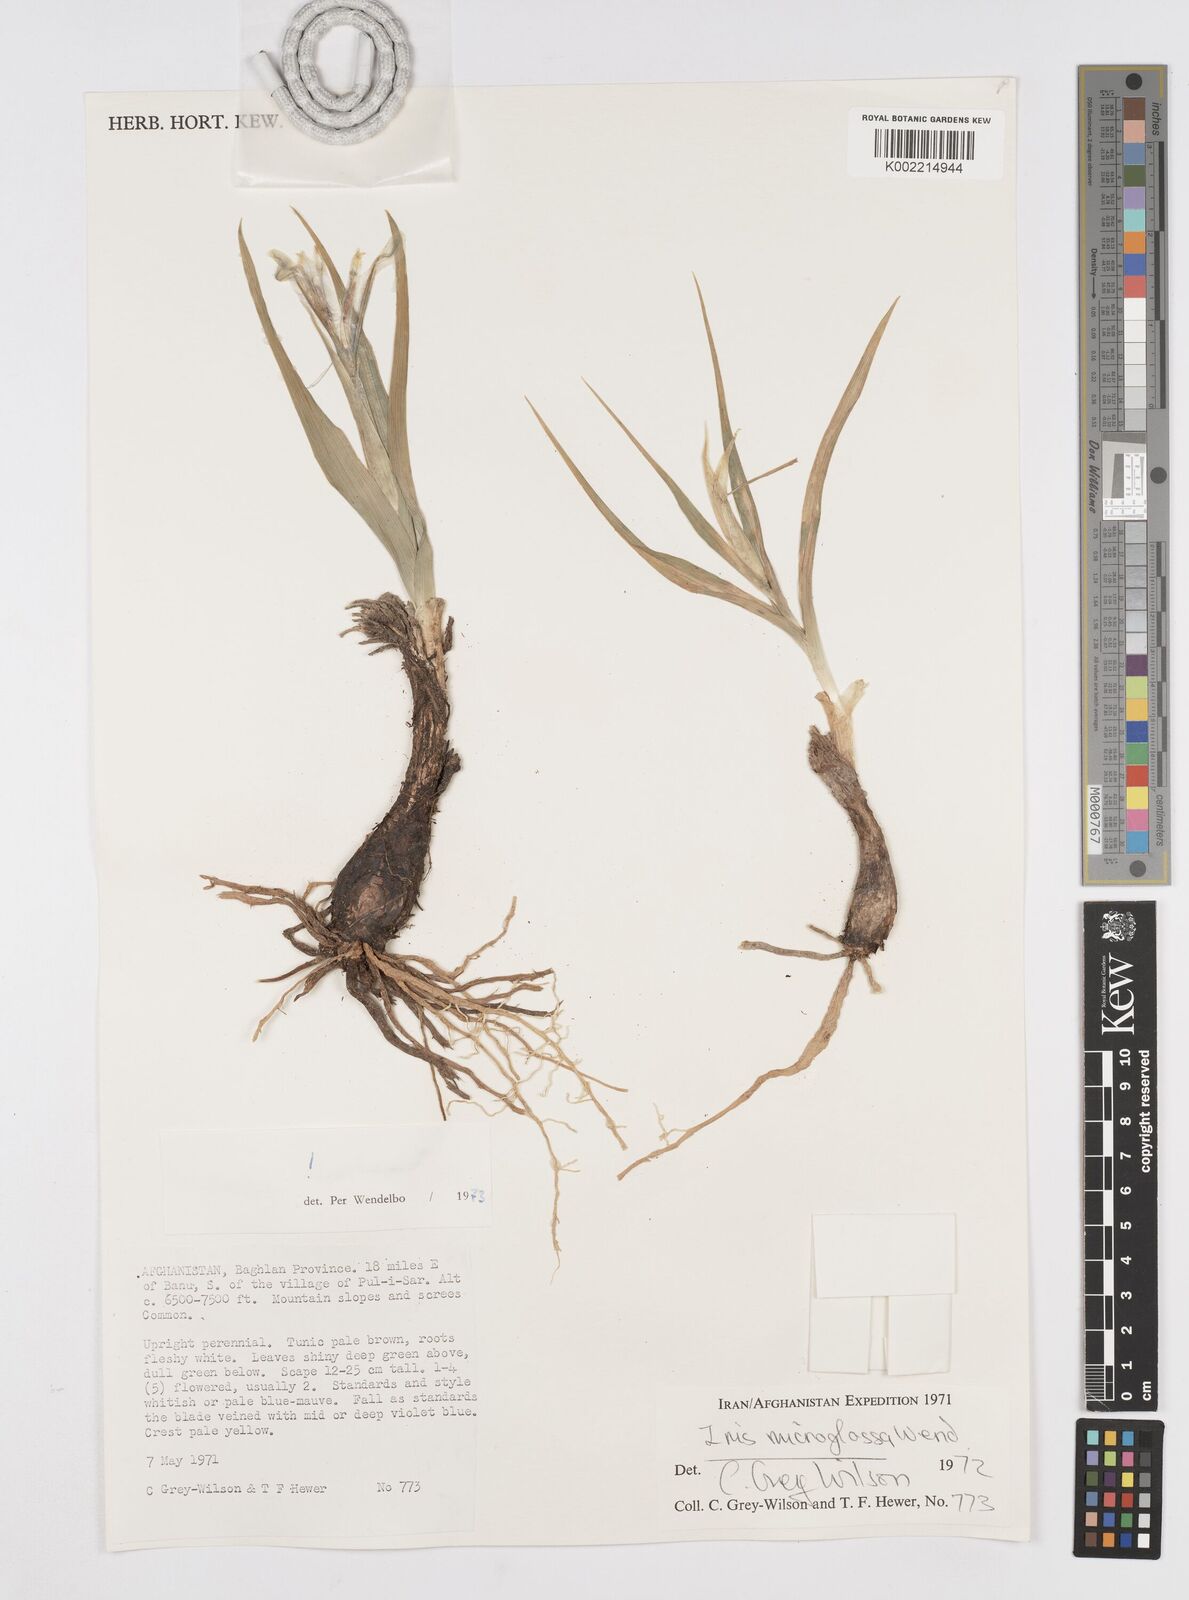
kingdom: Plantae
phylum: Tracheophyta
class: Liliopsida
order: Asparagales
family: Iridaceae
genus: Iris
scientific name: Iris microglossa
